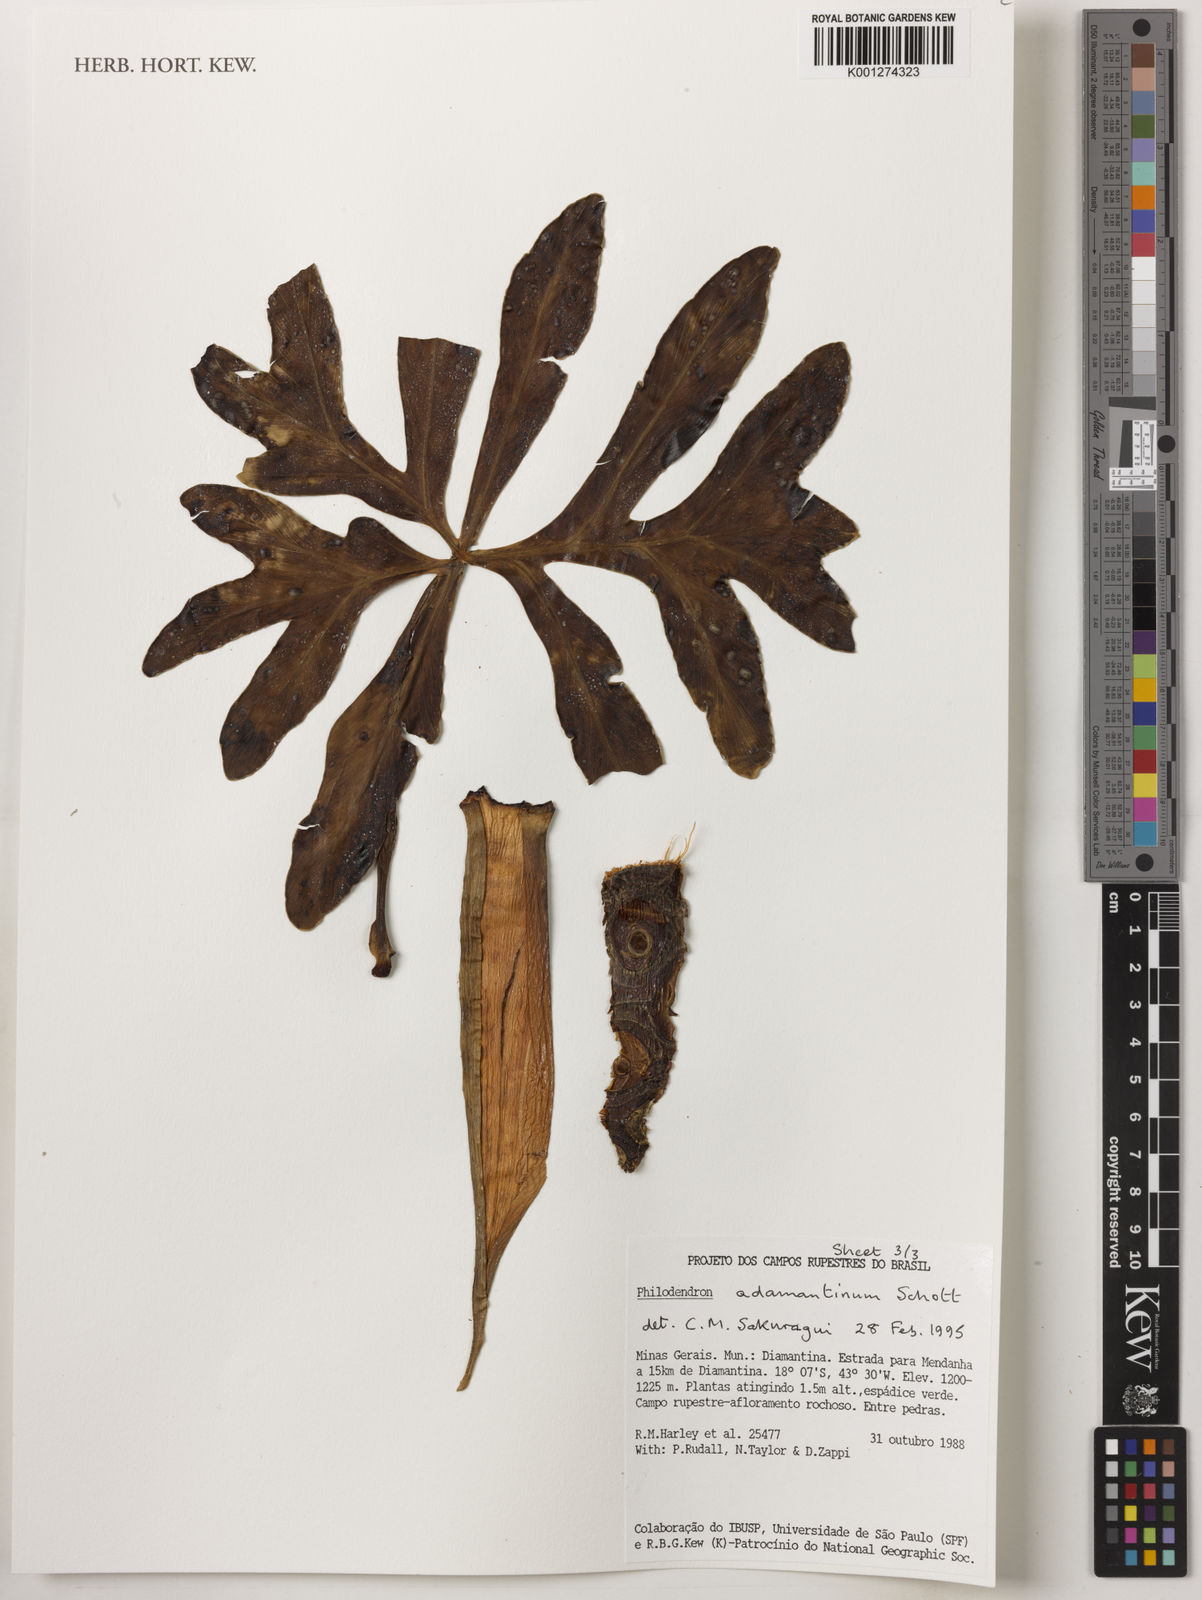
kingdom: Plantae
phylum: Tracheophyta
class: Liliopsida
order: Alismatales
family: Araceae
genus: Thaumatophyllum
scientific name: Thaumatophyllum adamantinum
